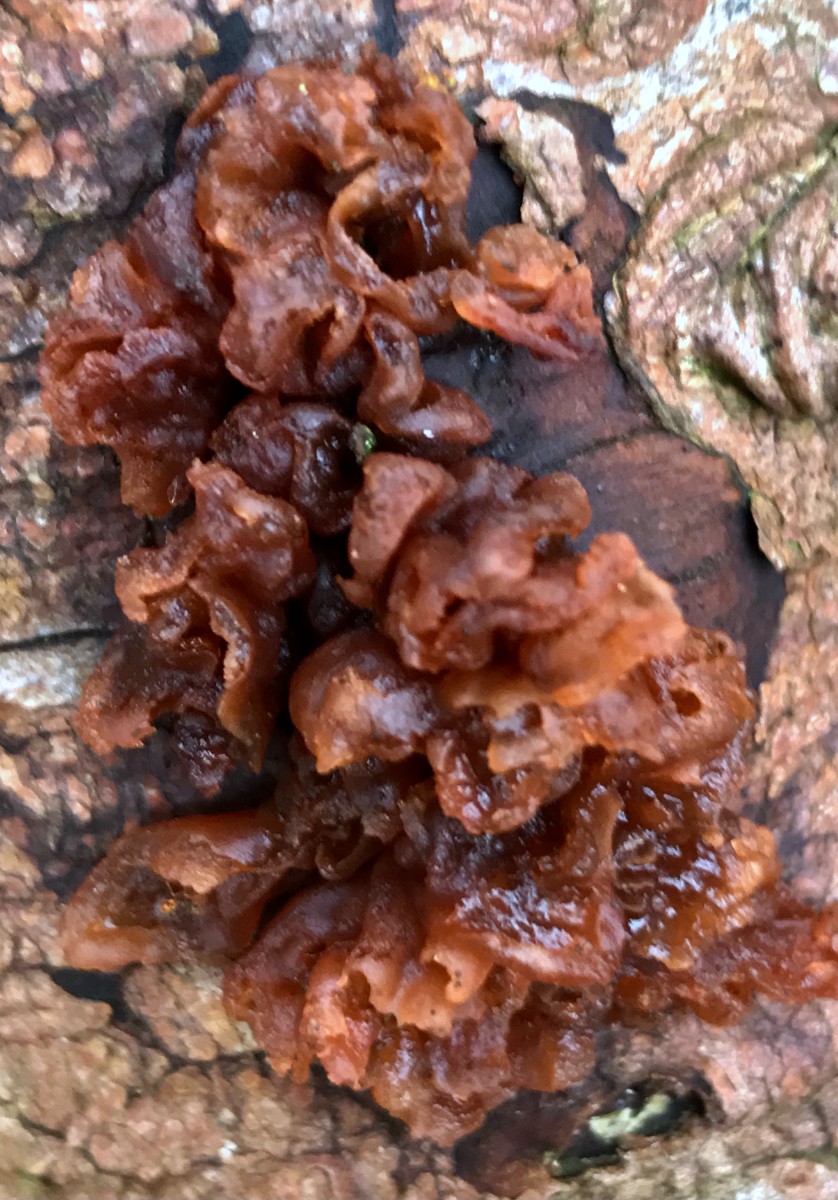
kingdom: Fungi
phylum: Basidiomycota
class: Tremellomycetes
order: Tremellales
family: Tremellaceae
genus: Phaeotremella
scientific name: Phaeotremella foliacea
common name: brun bævresvamp
